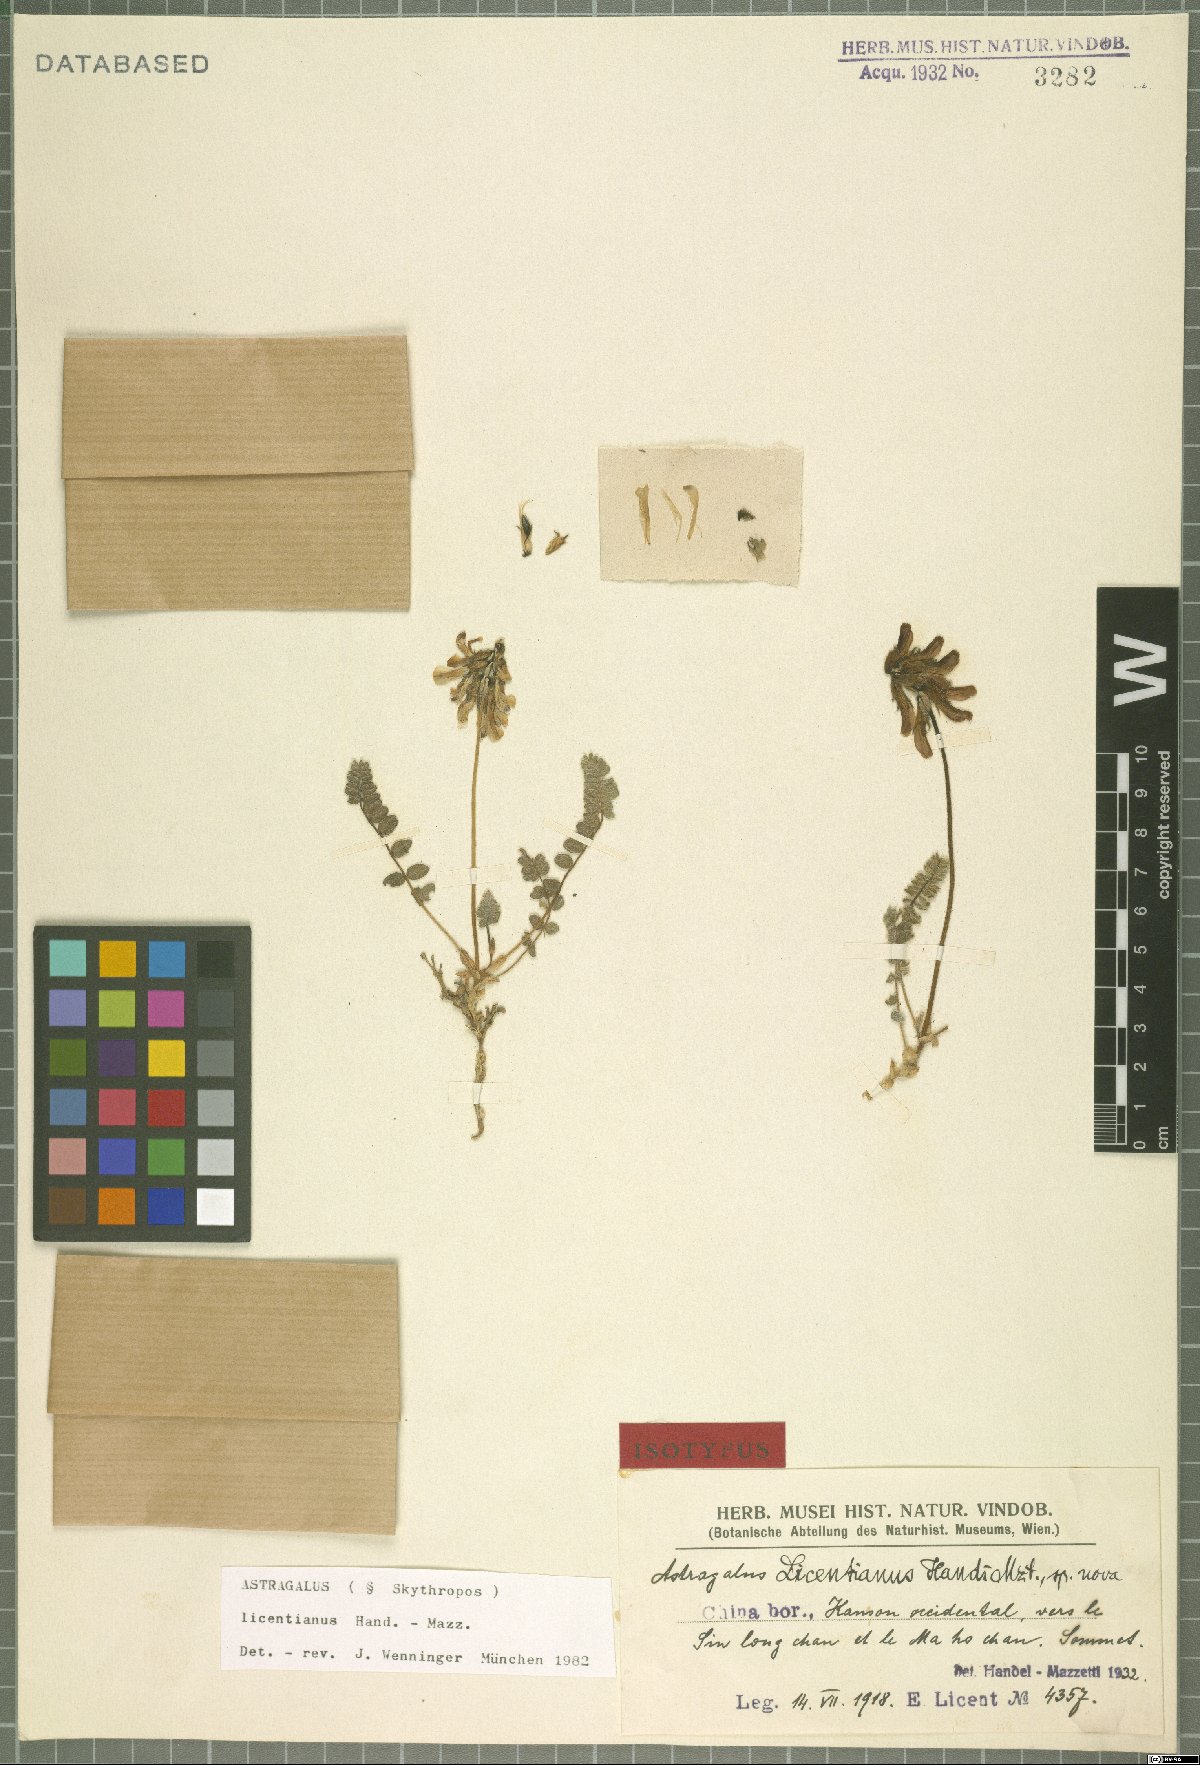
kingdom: Plantae
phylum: Tracheophyta
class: Magnoliopsida
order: Fabales
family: Fabaceae
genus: Astragalus
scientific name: Astragalus licentianus
